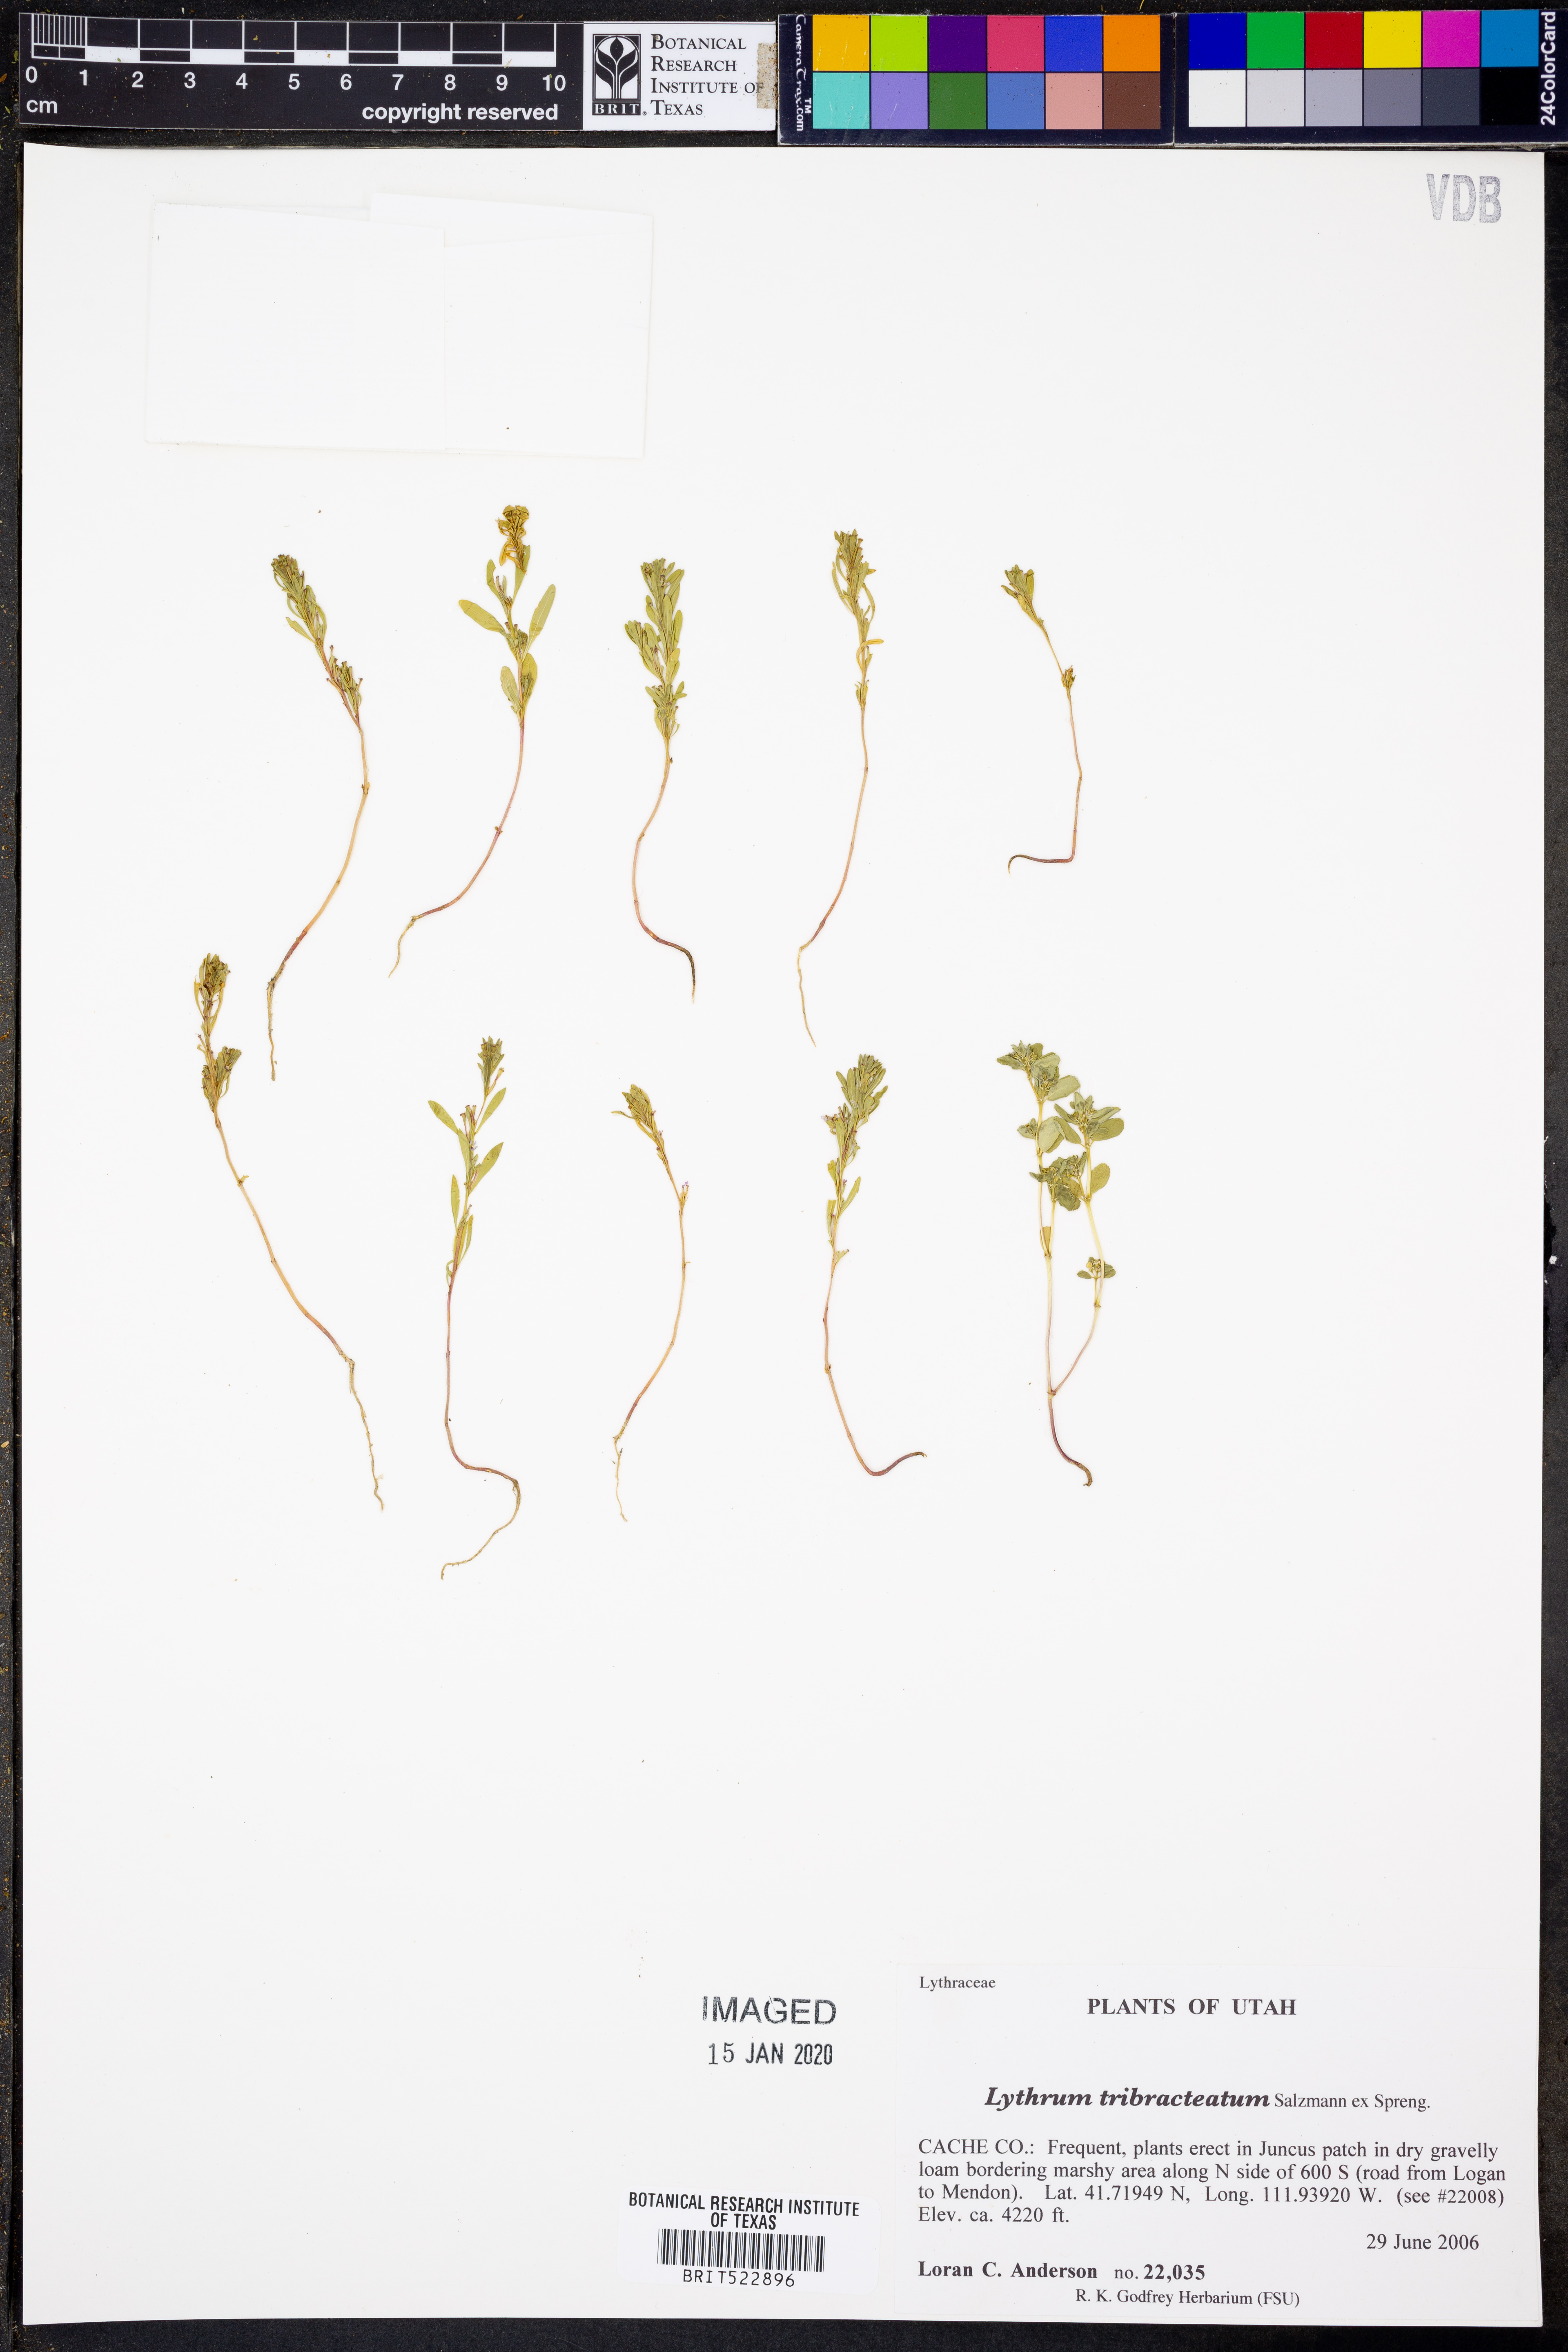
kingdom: Plantae
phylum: Tracheophyta
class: Magnoliopsida
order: Myrtales
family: Lythraceae
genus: Lythrum
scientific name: Lythrum tribracteatum
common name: Threebract loosestrife
